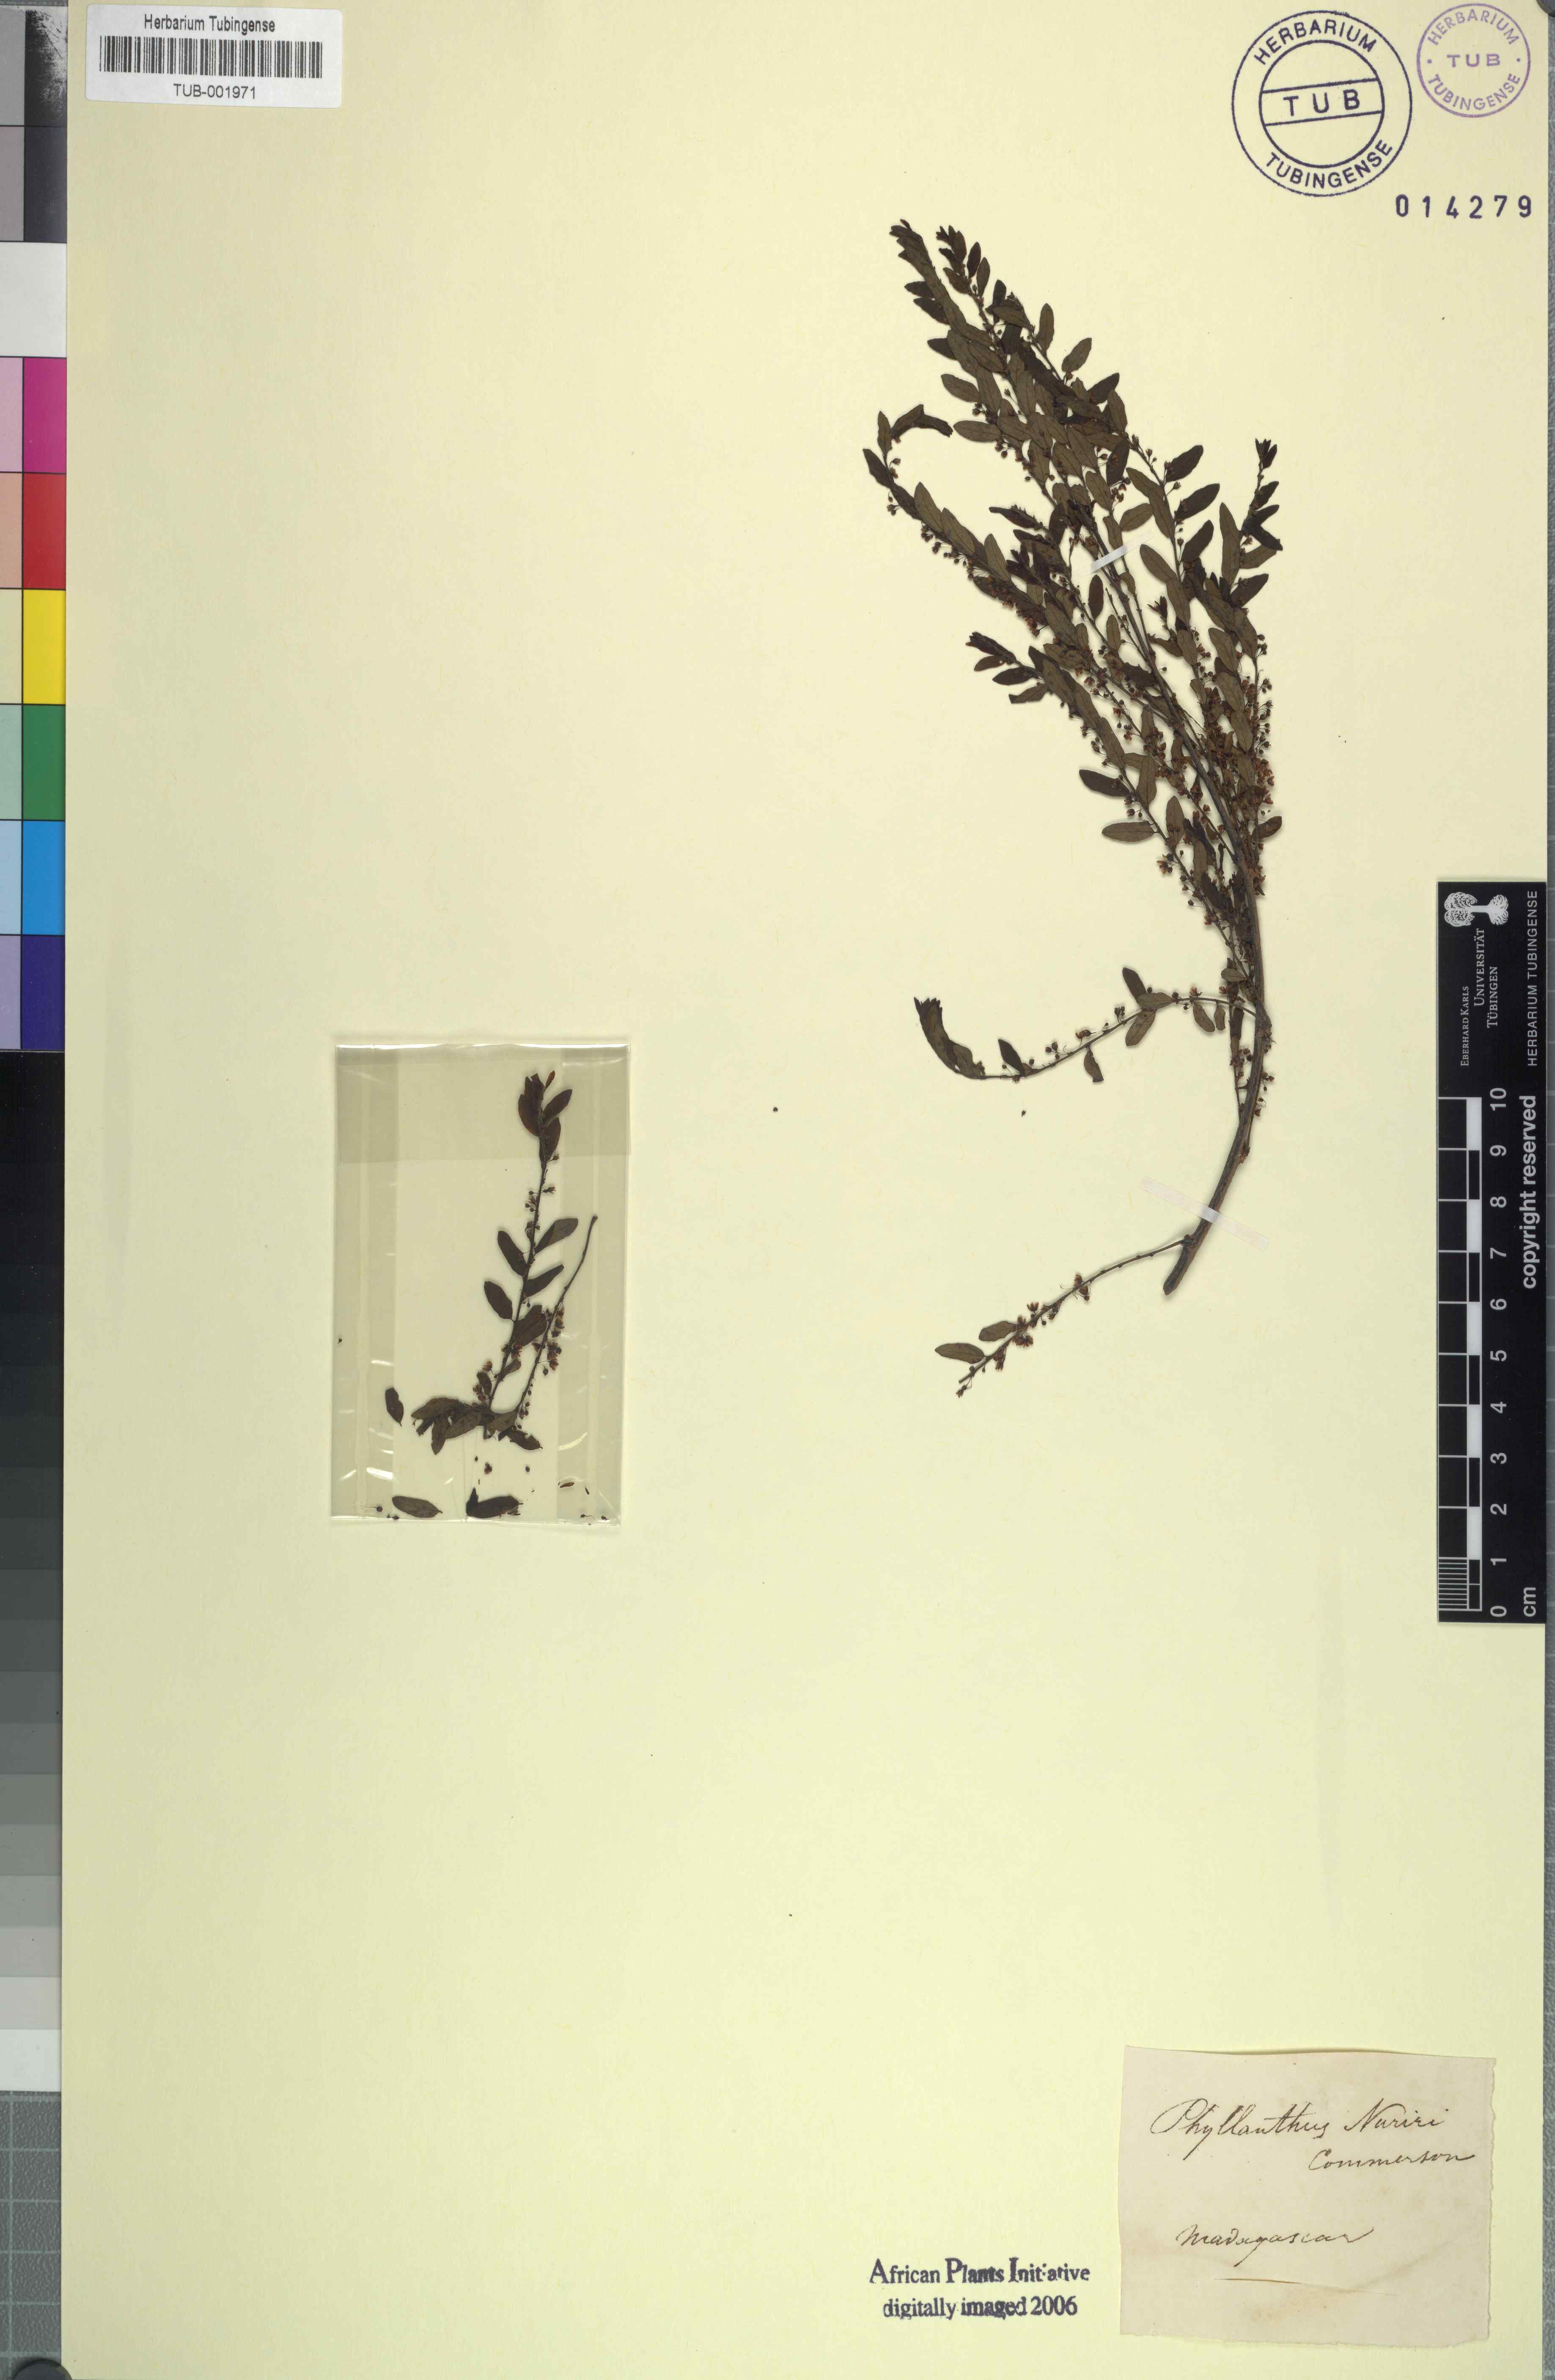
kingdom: Plantae
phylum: Tracheophyta
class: Magnoliopsida
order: Malpighiales
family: Phyllanthaceae
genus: Phyllanthus
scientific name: Phyllanthus niruri
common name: Niruri
